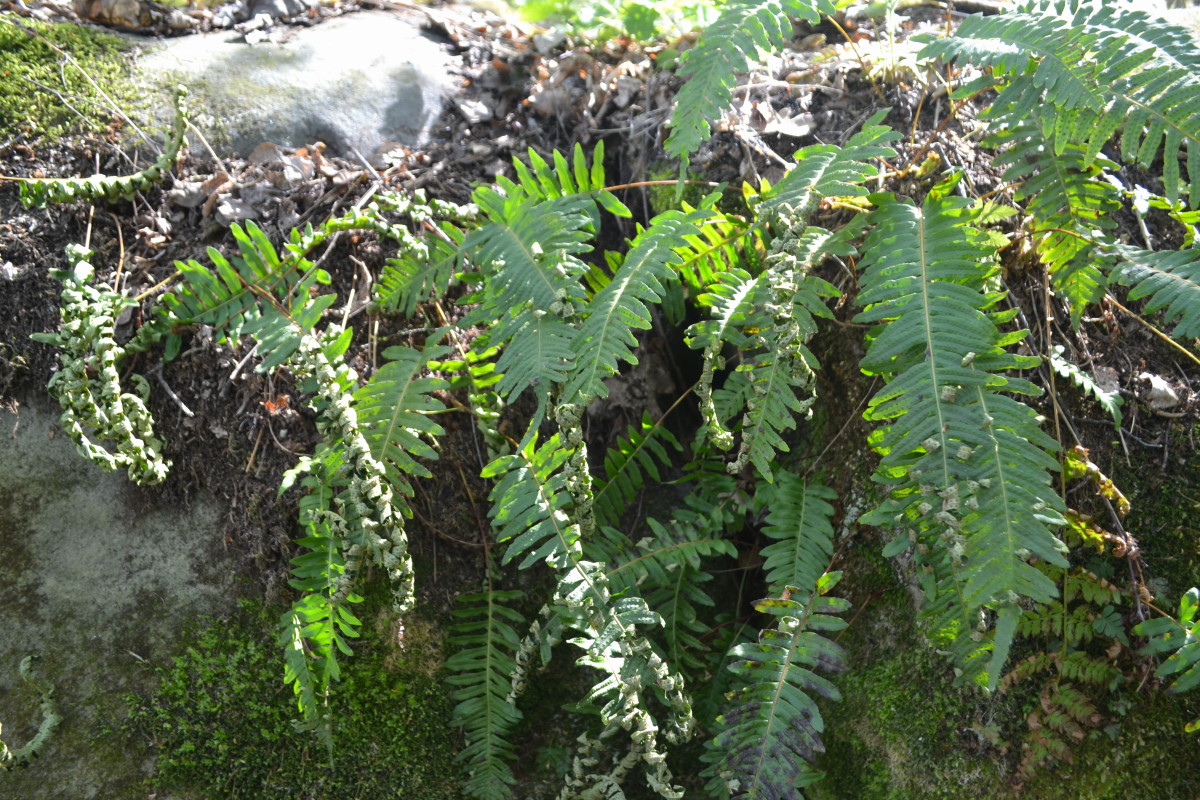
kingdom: Plantae
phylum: Tracheophyta
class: Polypodiopsida
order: Polypodiales
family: Polypodiaceae
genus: Polypodium
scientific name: Polypodium vulgare
